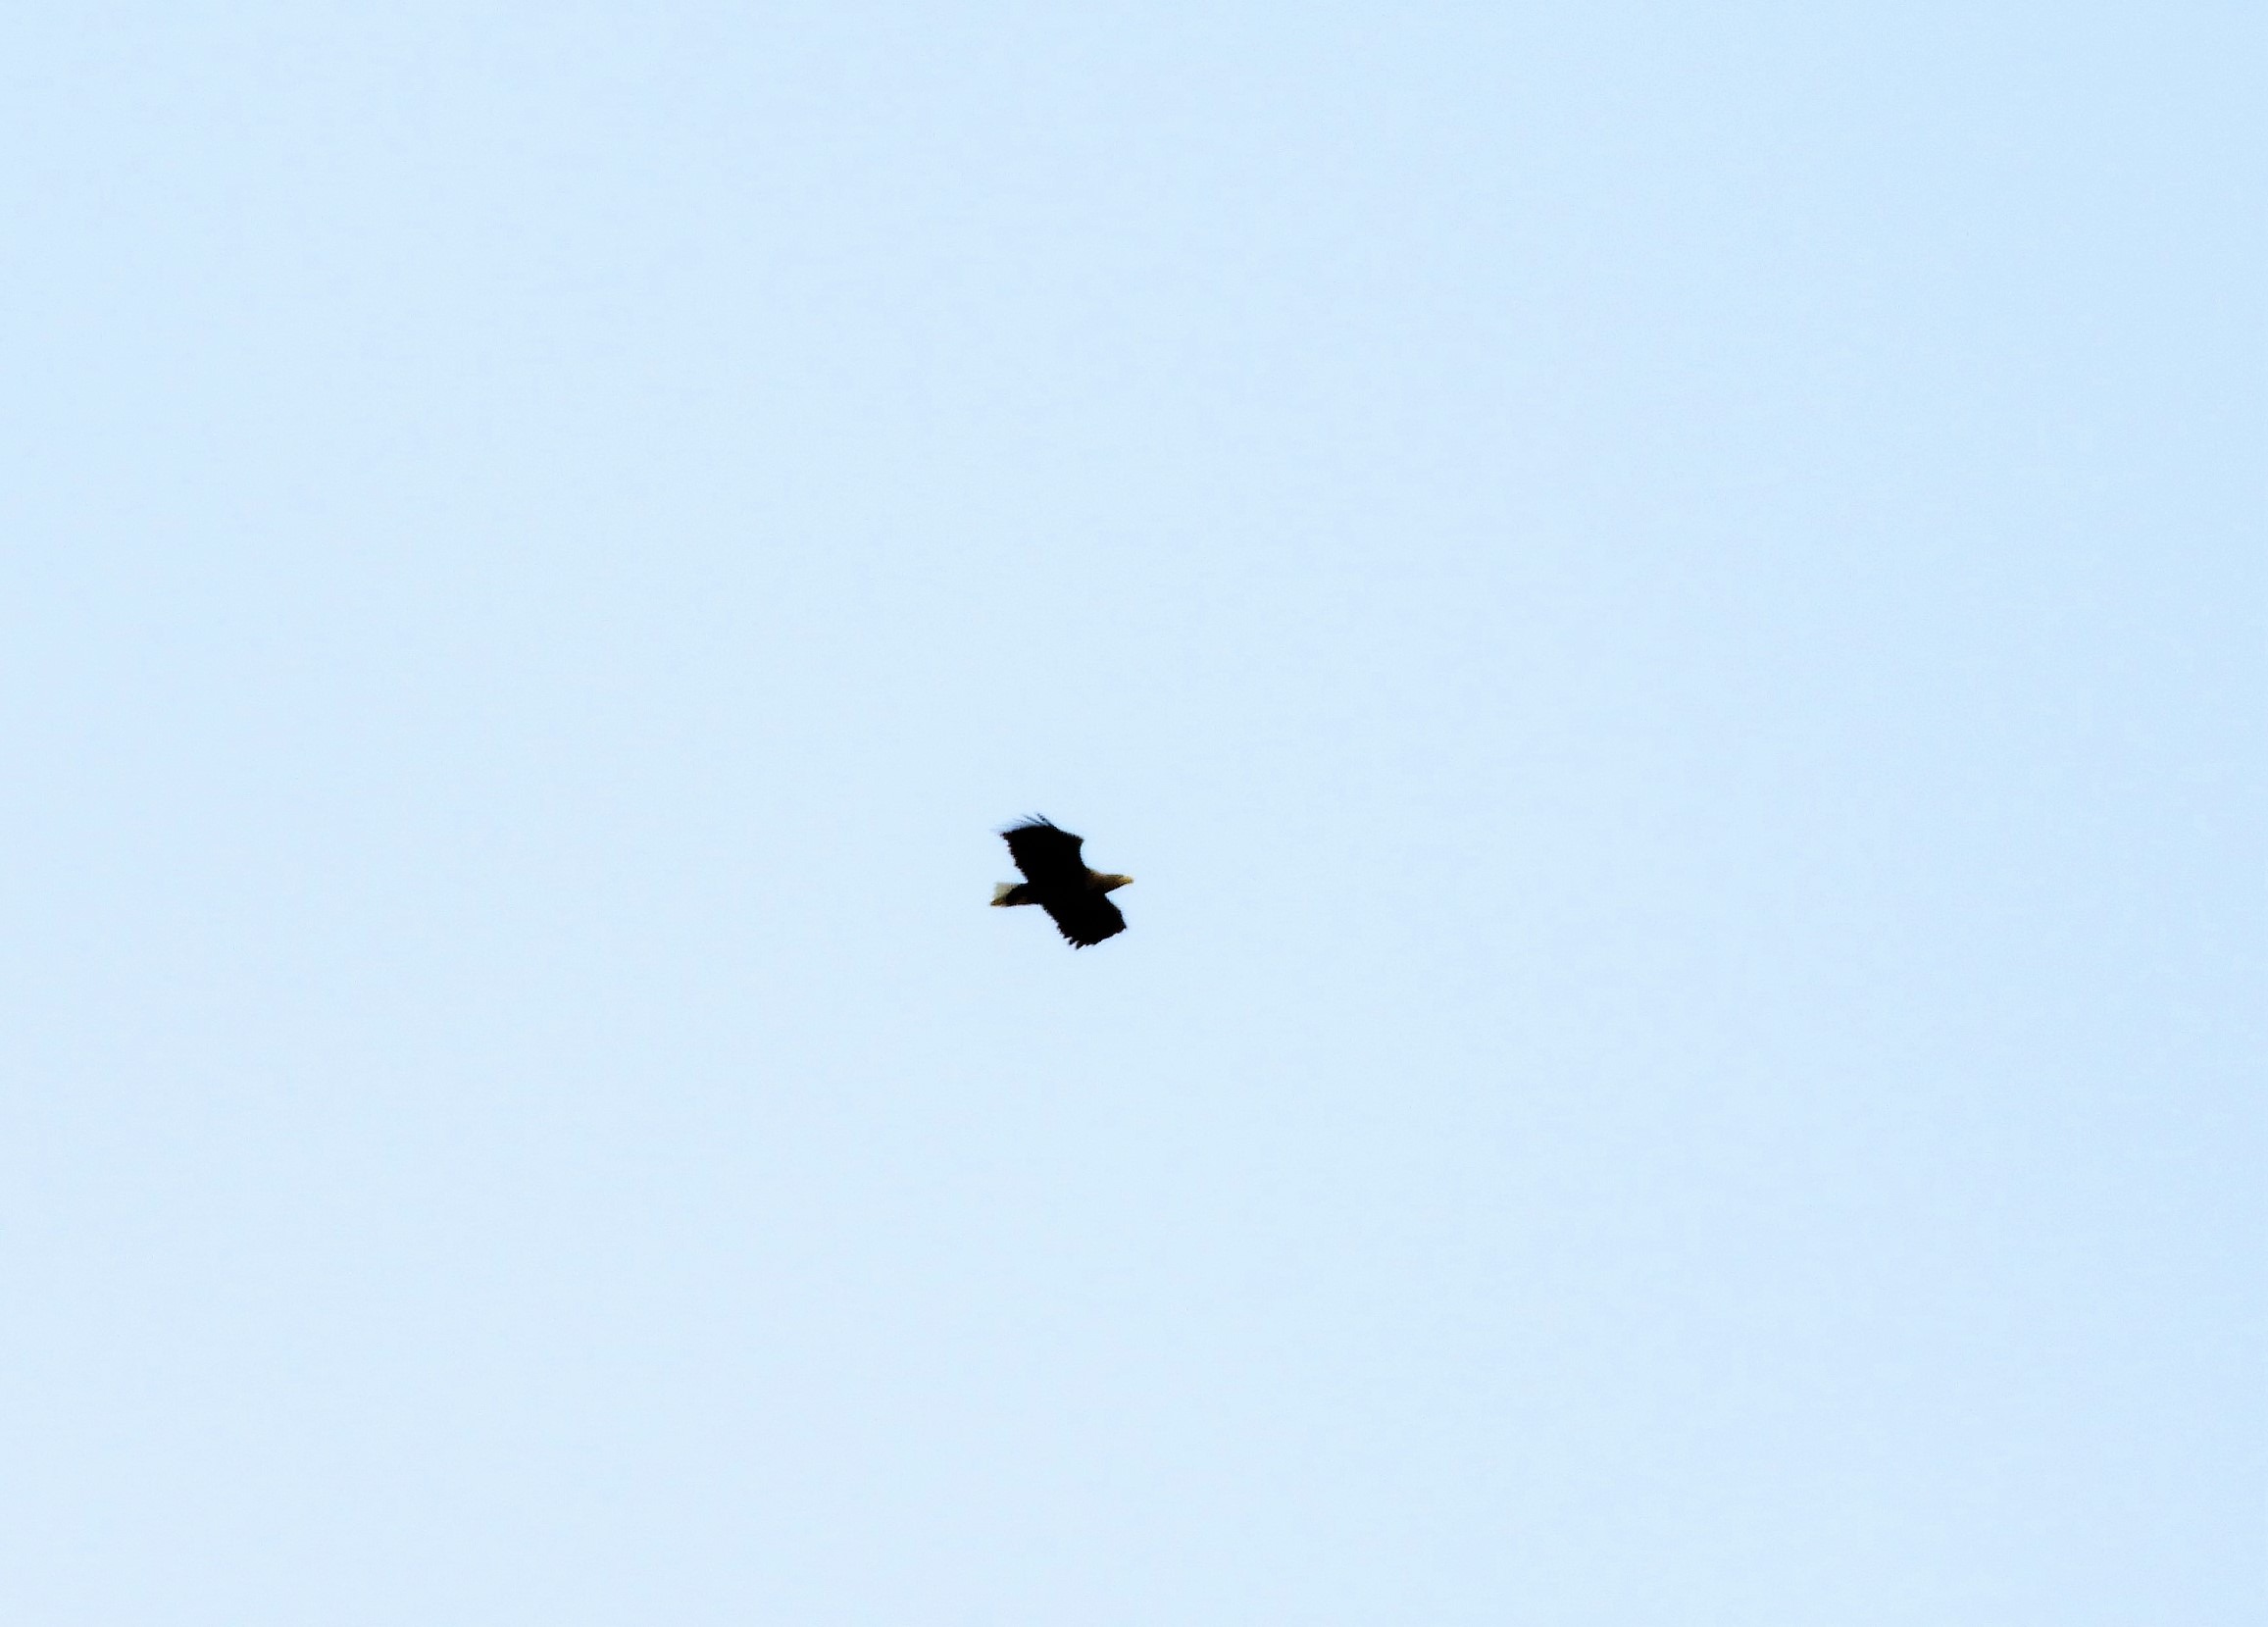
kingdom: Animalia
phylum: Chordata
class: Aves
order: Accipitriformes
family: Accipitridae
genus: Haliaeetus
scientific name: Haliaeetus albicilla
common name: Havørn
